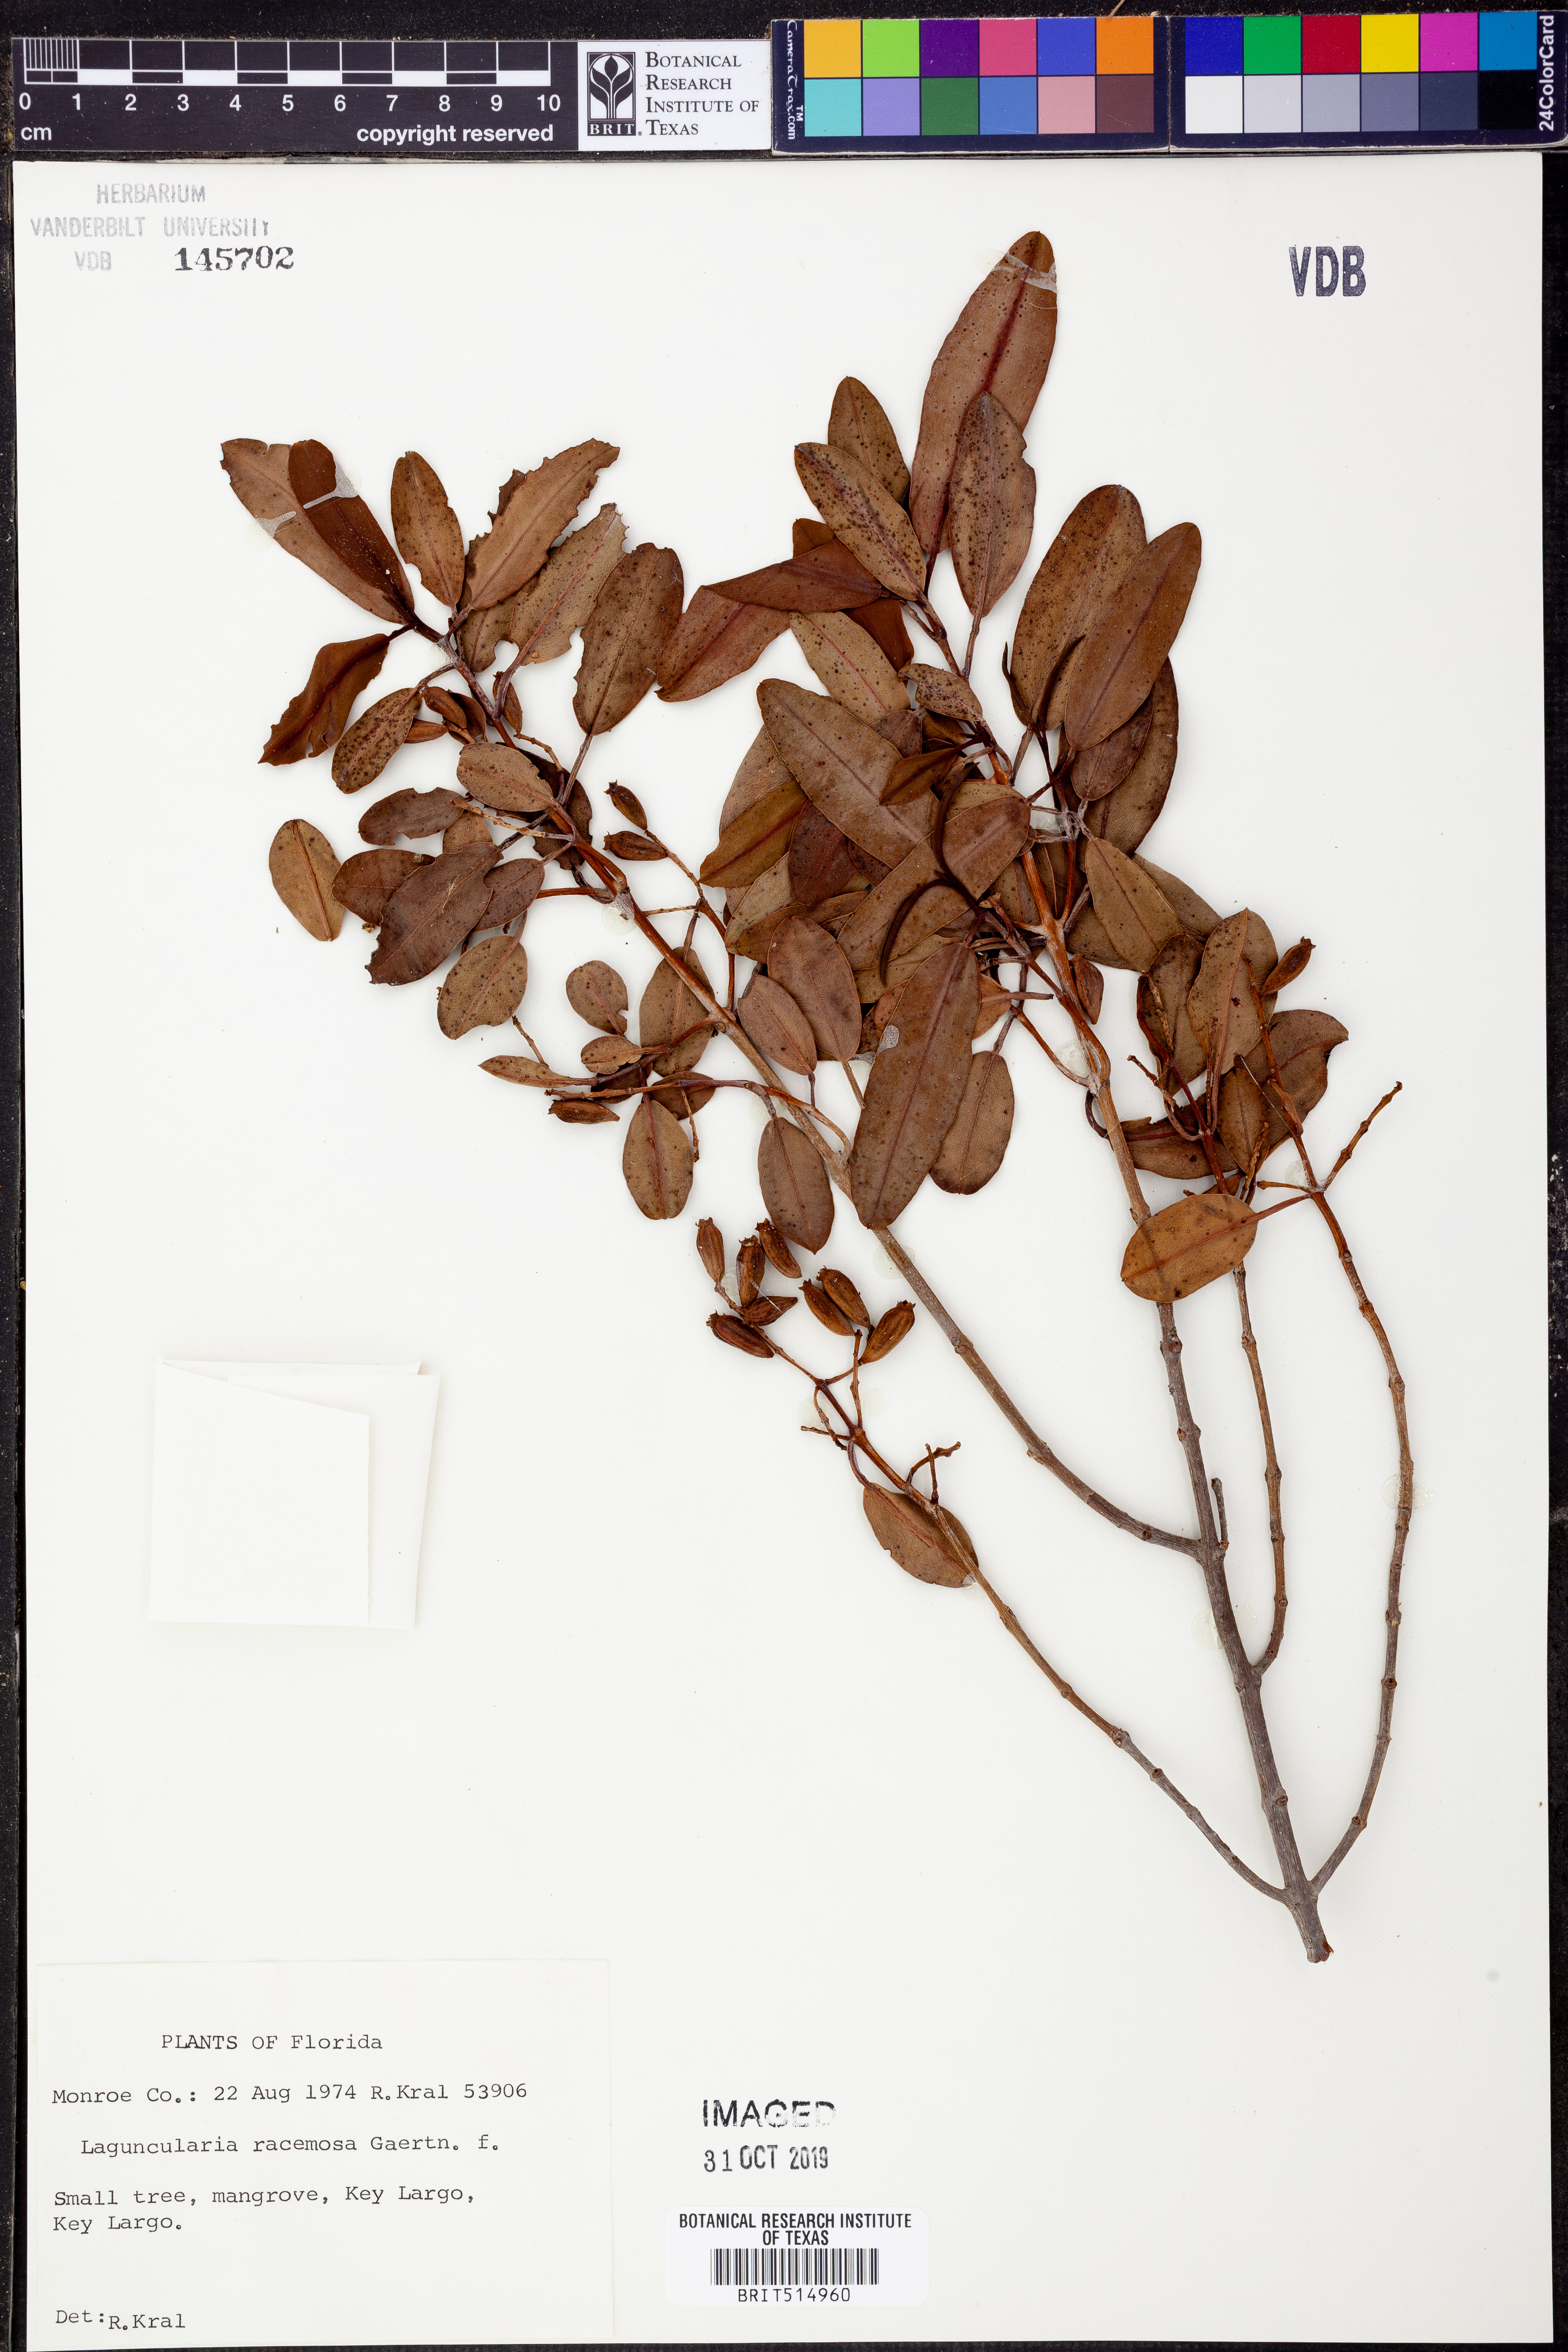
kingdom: Plantae
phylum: Tracheophyta
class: Magnoliopsida
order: Myrtales
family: Combretaceae
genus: Laguncularia
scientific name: Laguncularia racemosa
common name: White mangrove
